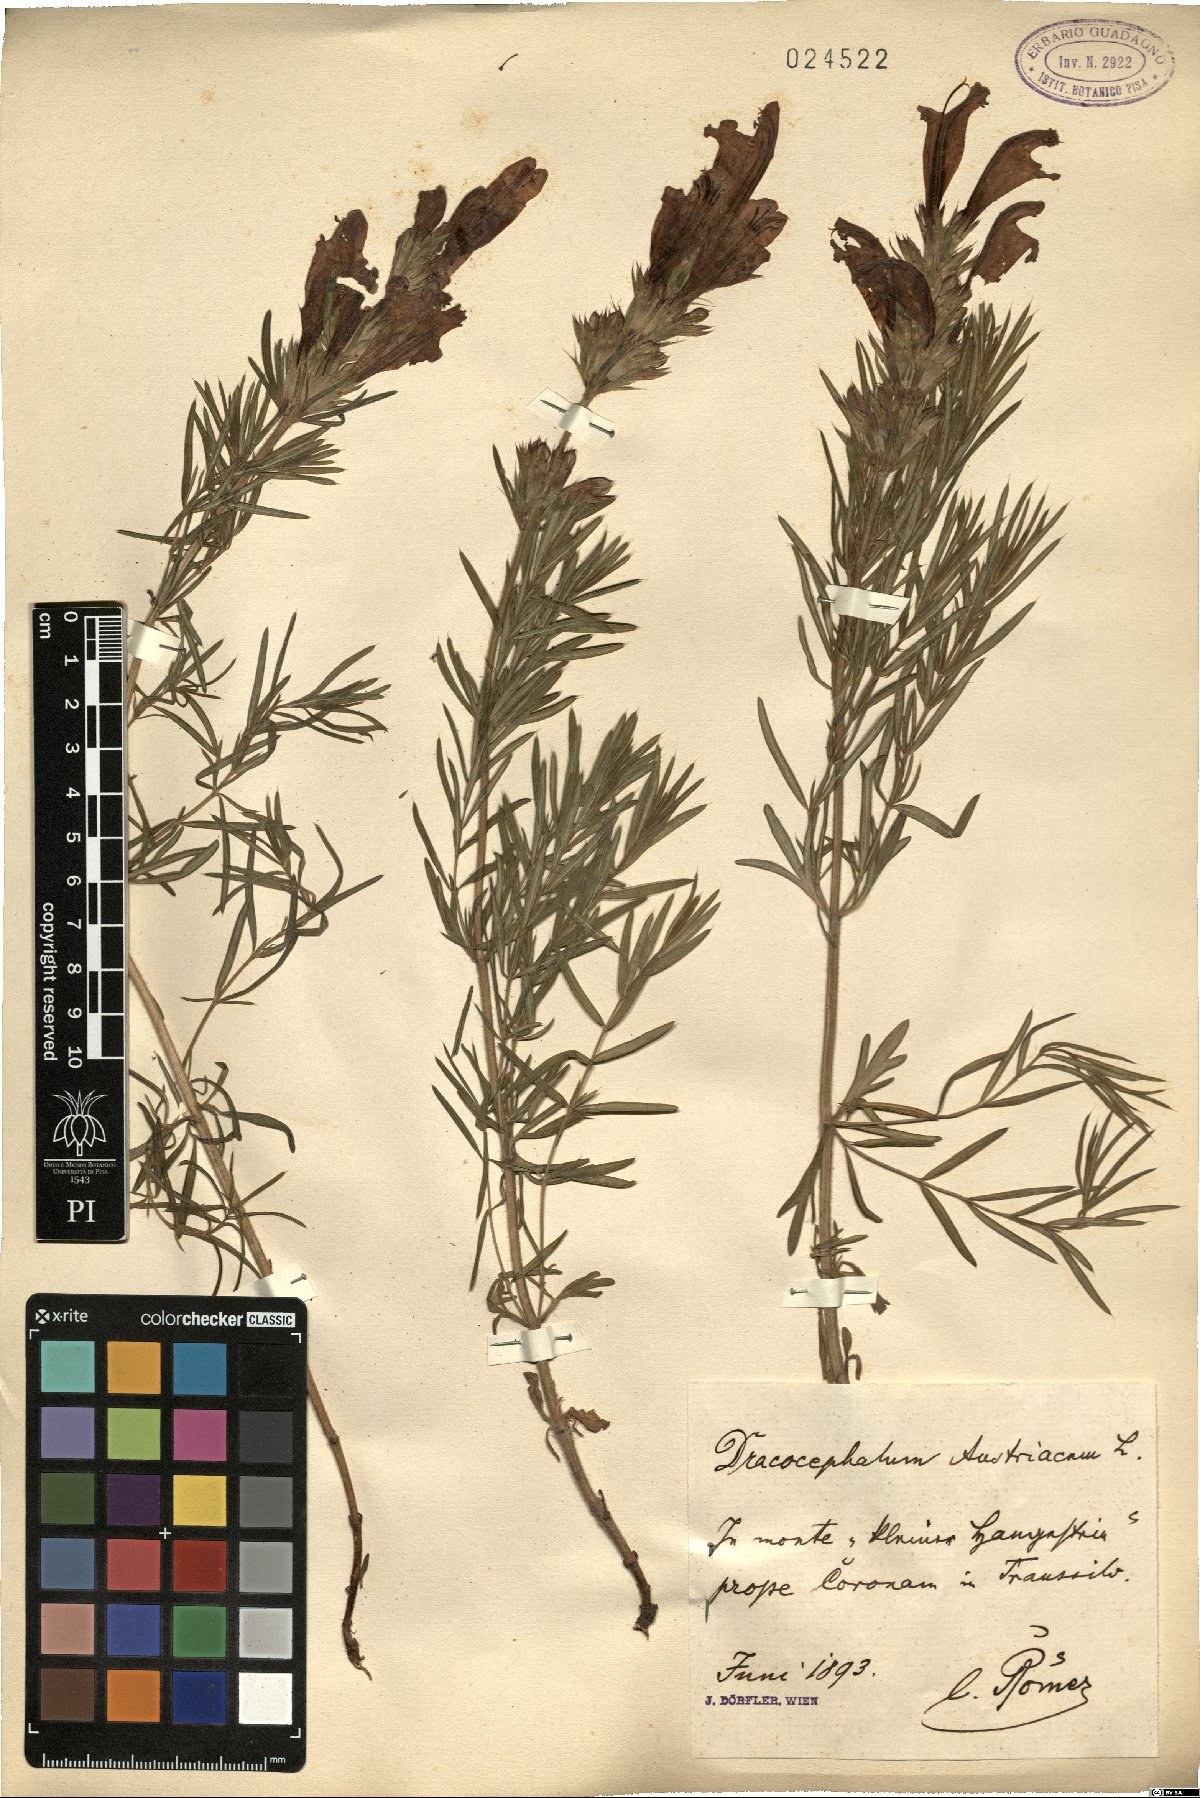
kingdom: Plantae
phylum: Tracheophyta
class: Magnoliopsida
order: Lamiales
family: Lamiaceae
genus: Dracocephalum
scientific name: Dracocephalum austriacum
